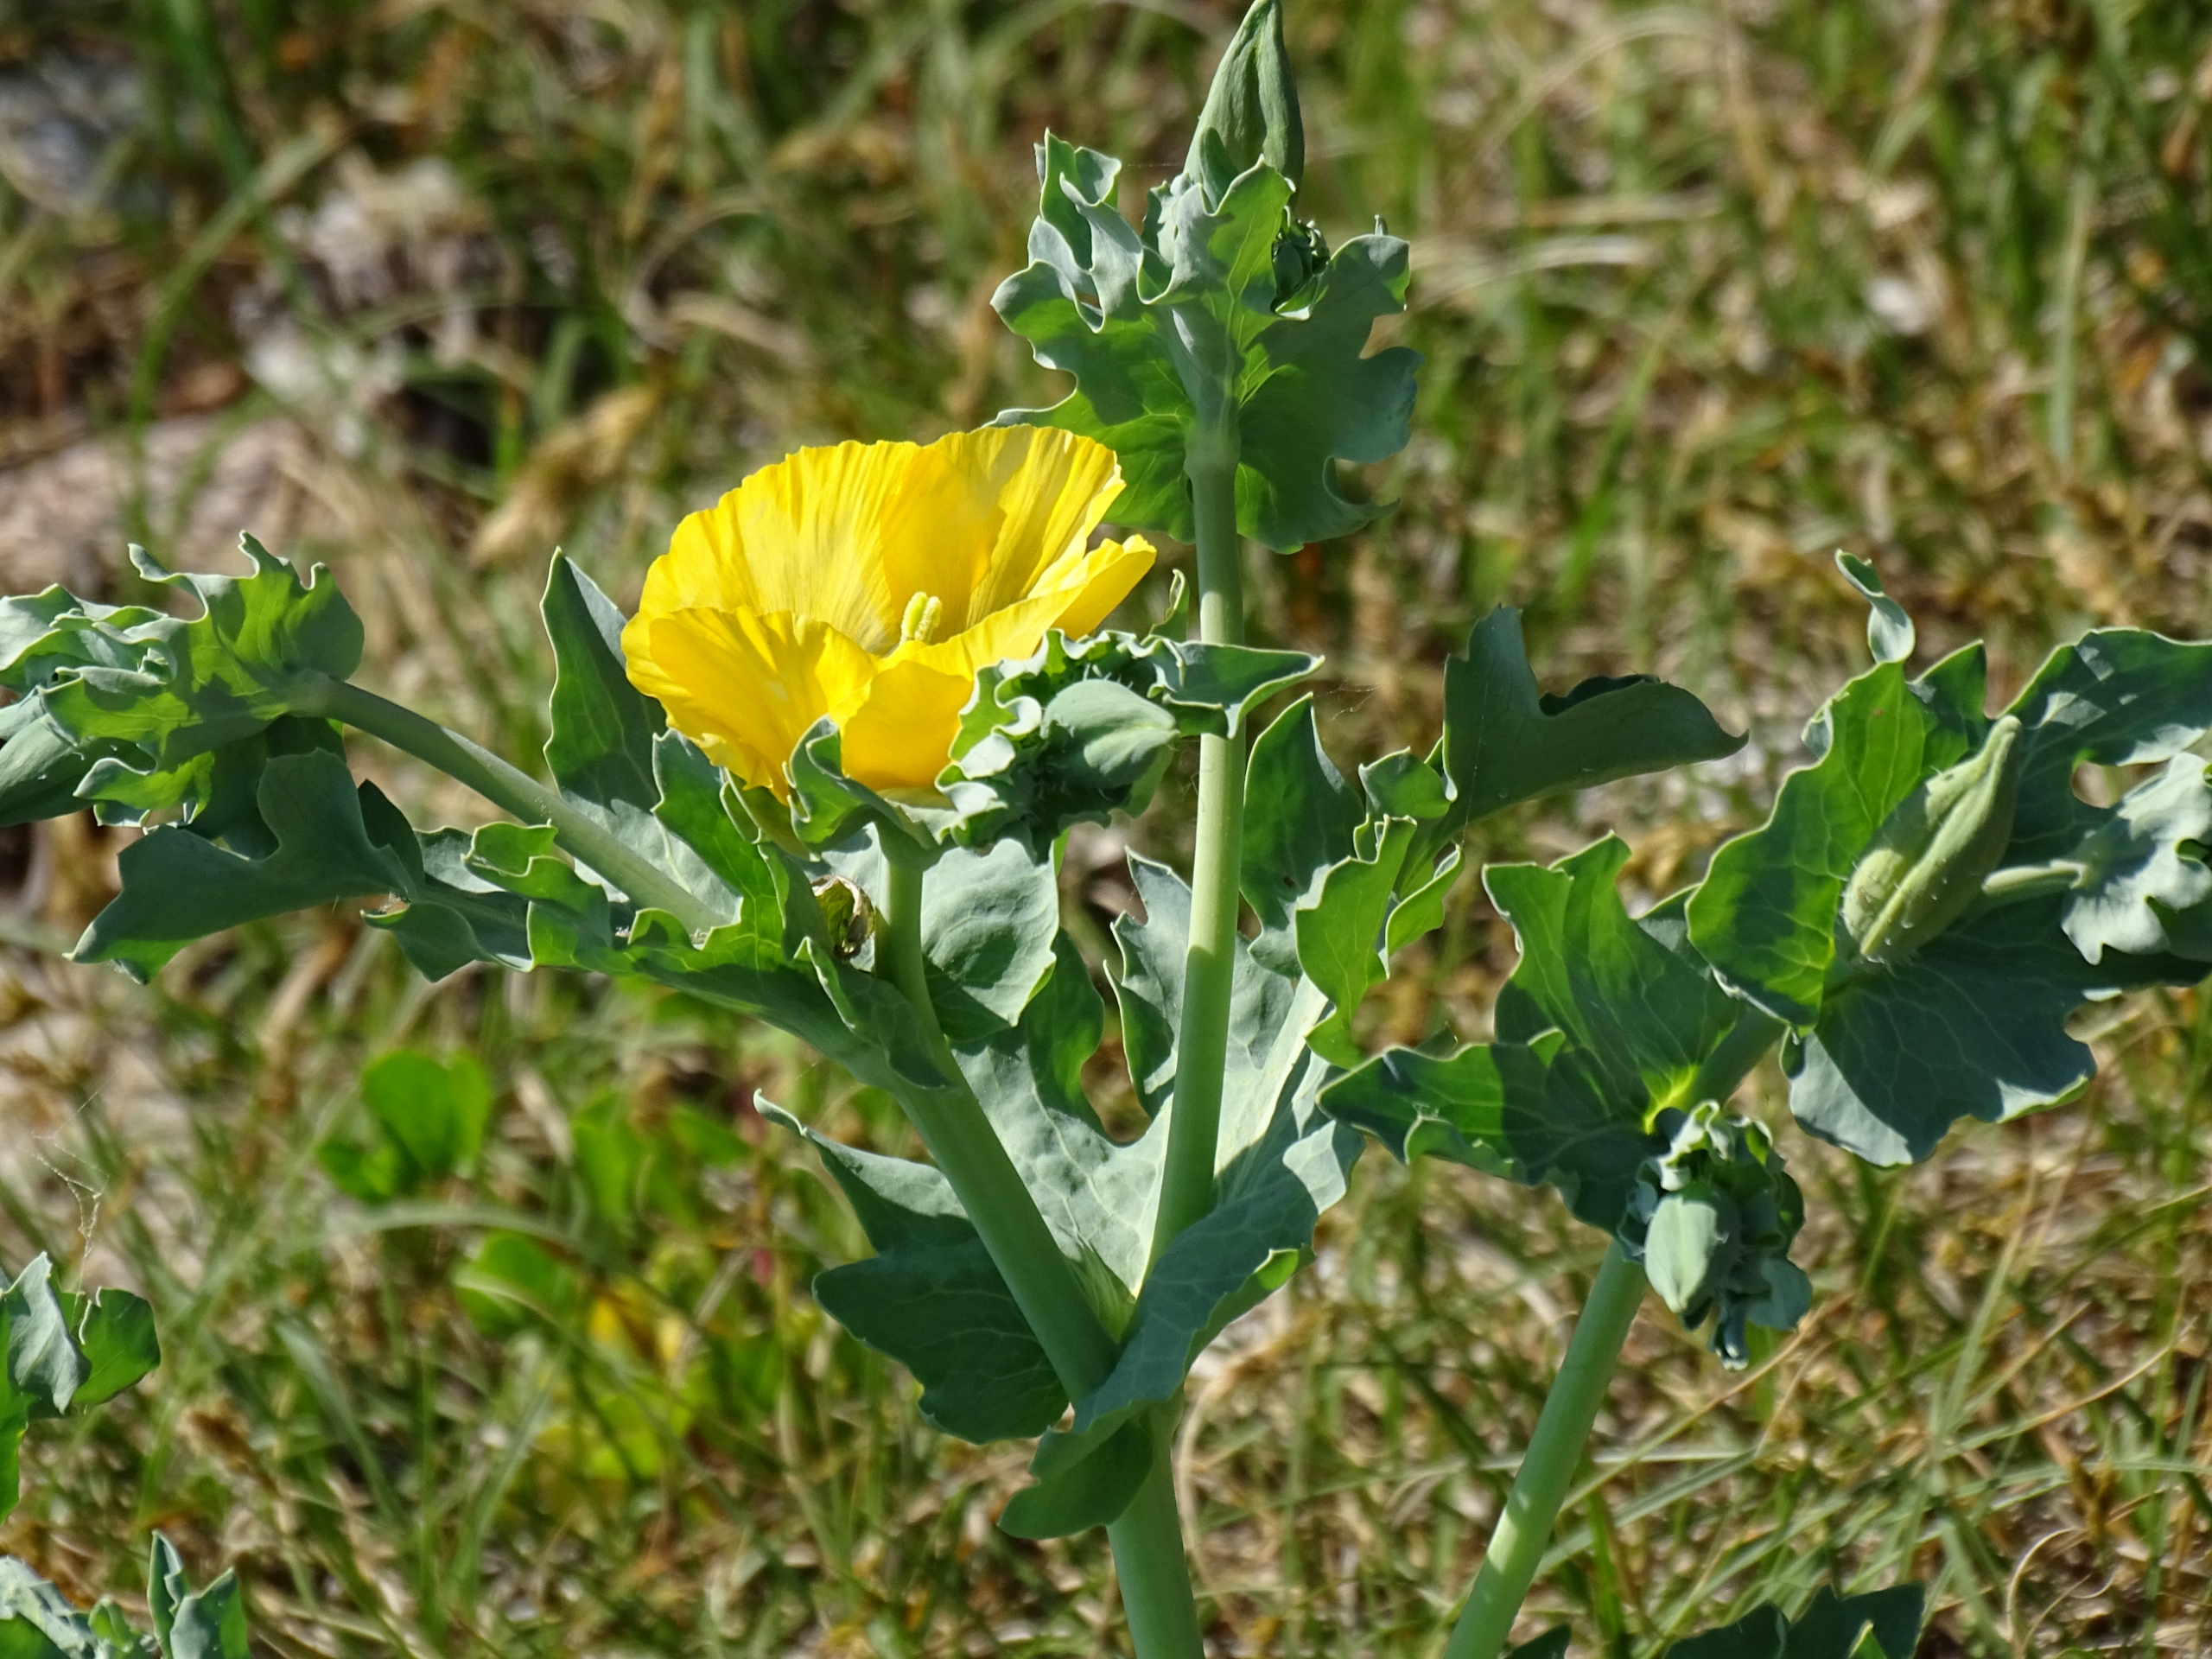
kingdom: Plantae
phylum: Tracheophyta
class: Magnoliopsida
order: Ranunculales
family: Papaveraceae
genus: Glaucium
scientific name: Glaucium flavum
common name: Hornskulpe
